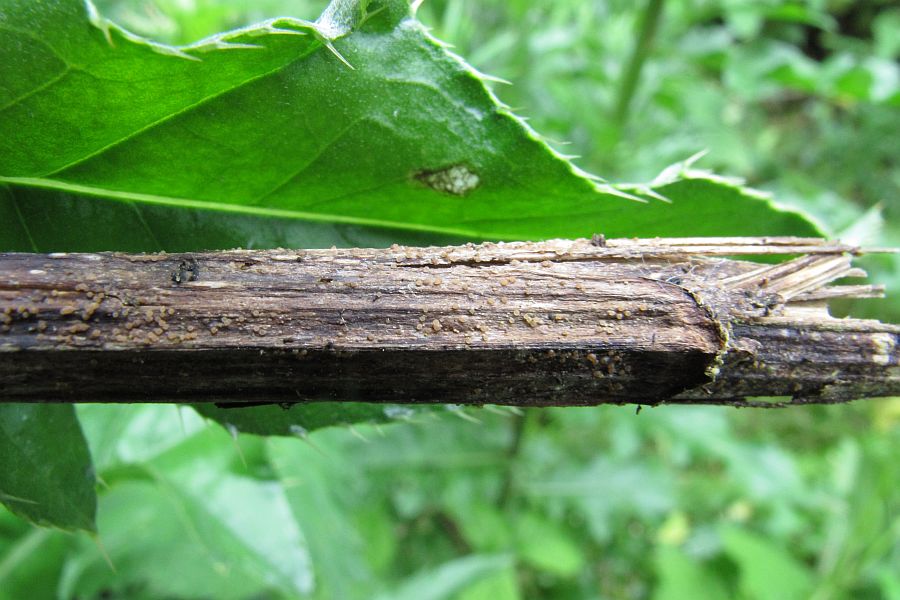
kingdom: Fungi
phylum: Ascomycota
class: Sordariomycetes
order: Hypocreales
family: Bionectriaceae
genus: Nectriella
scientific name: Nectriella bloxamii
